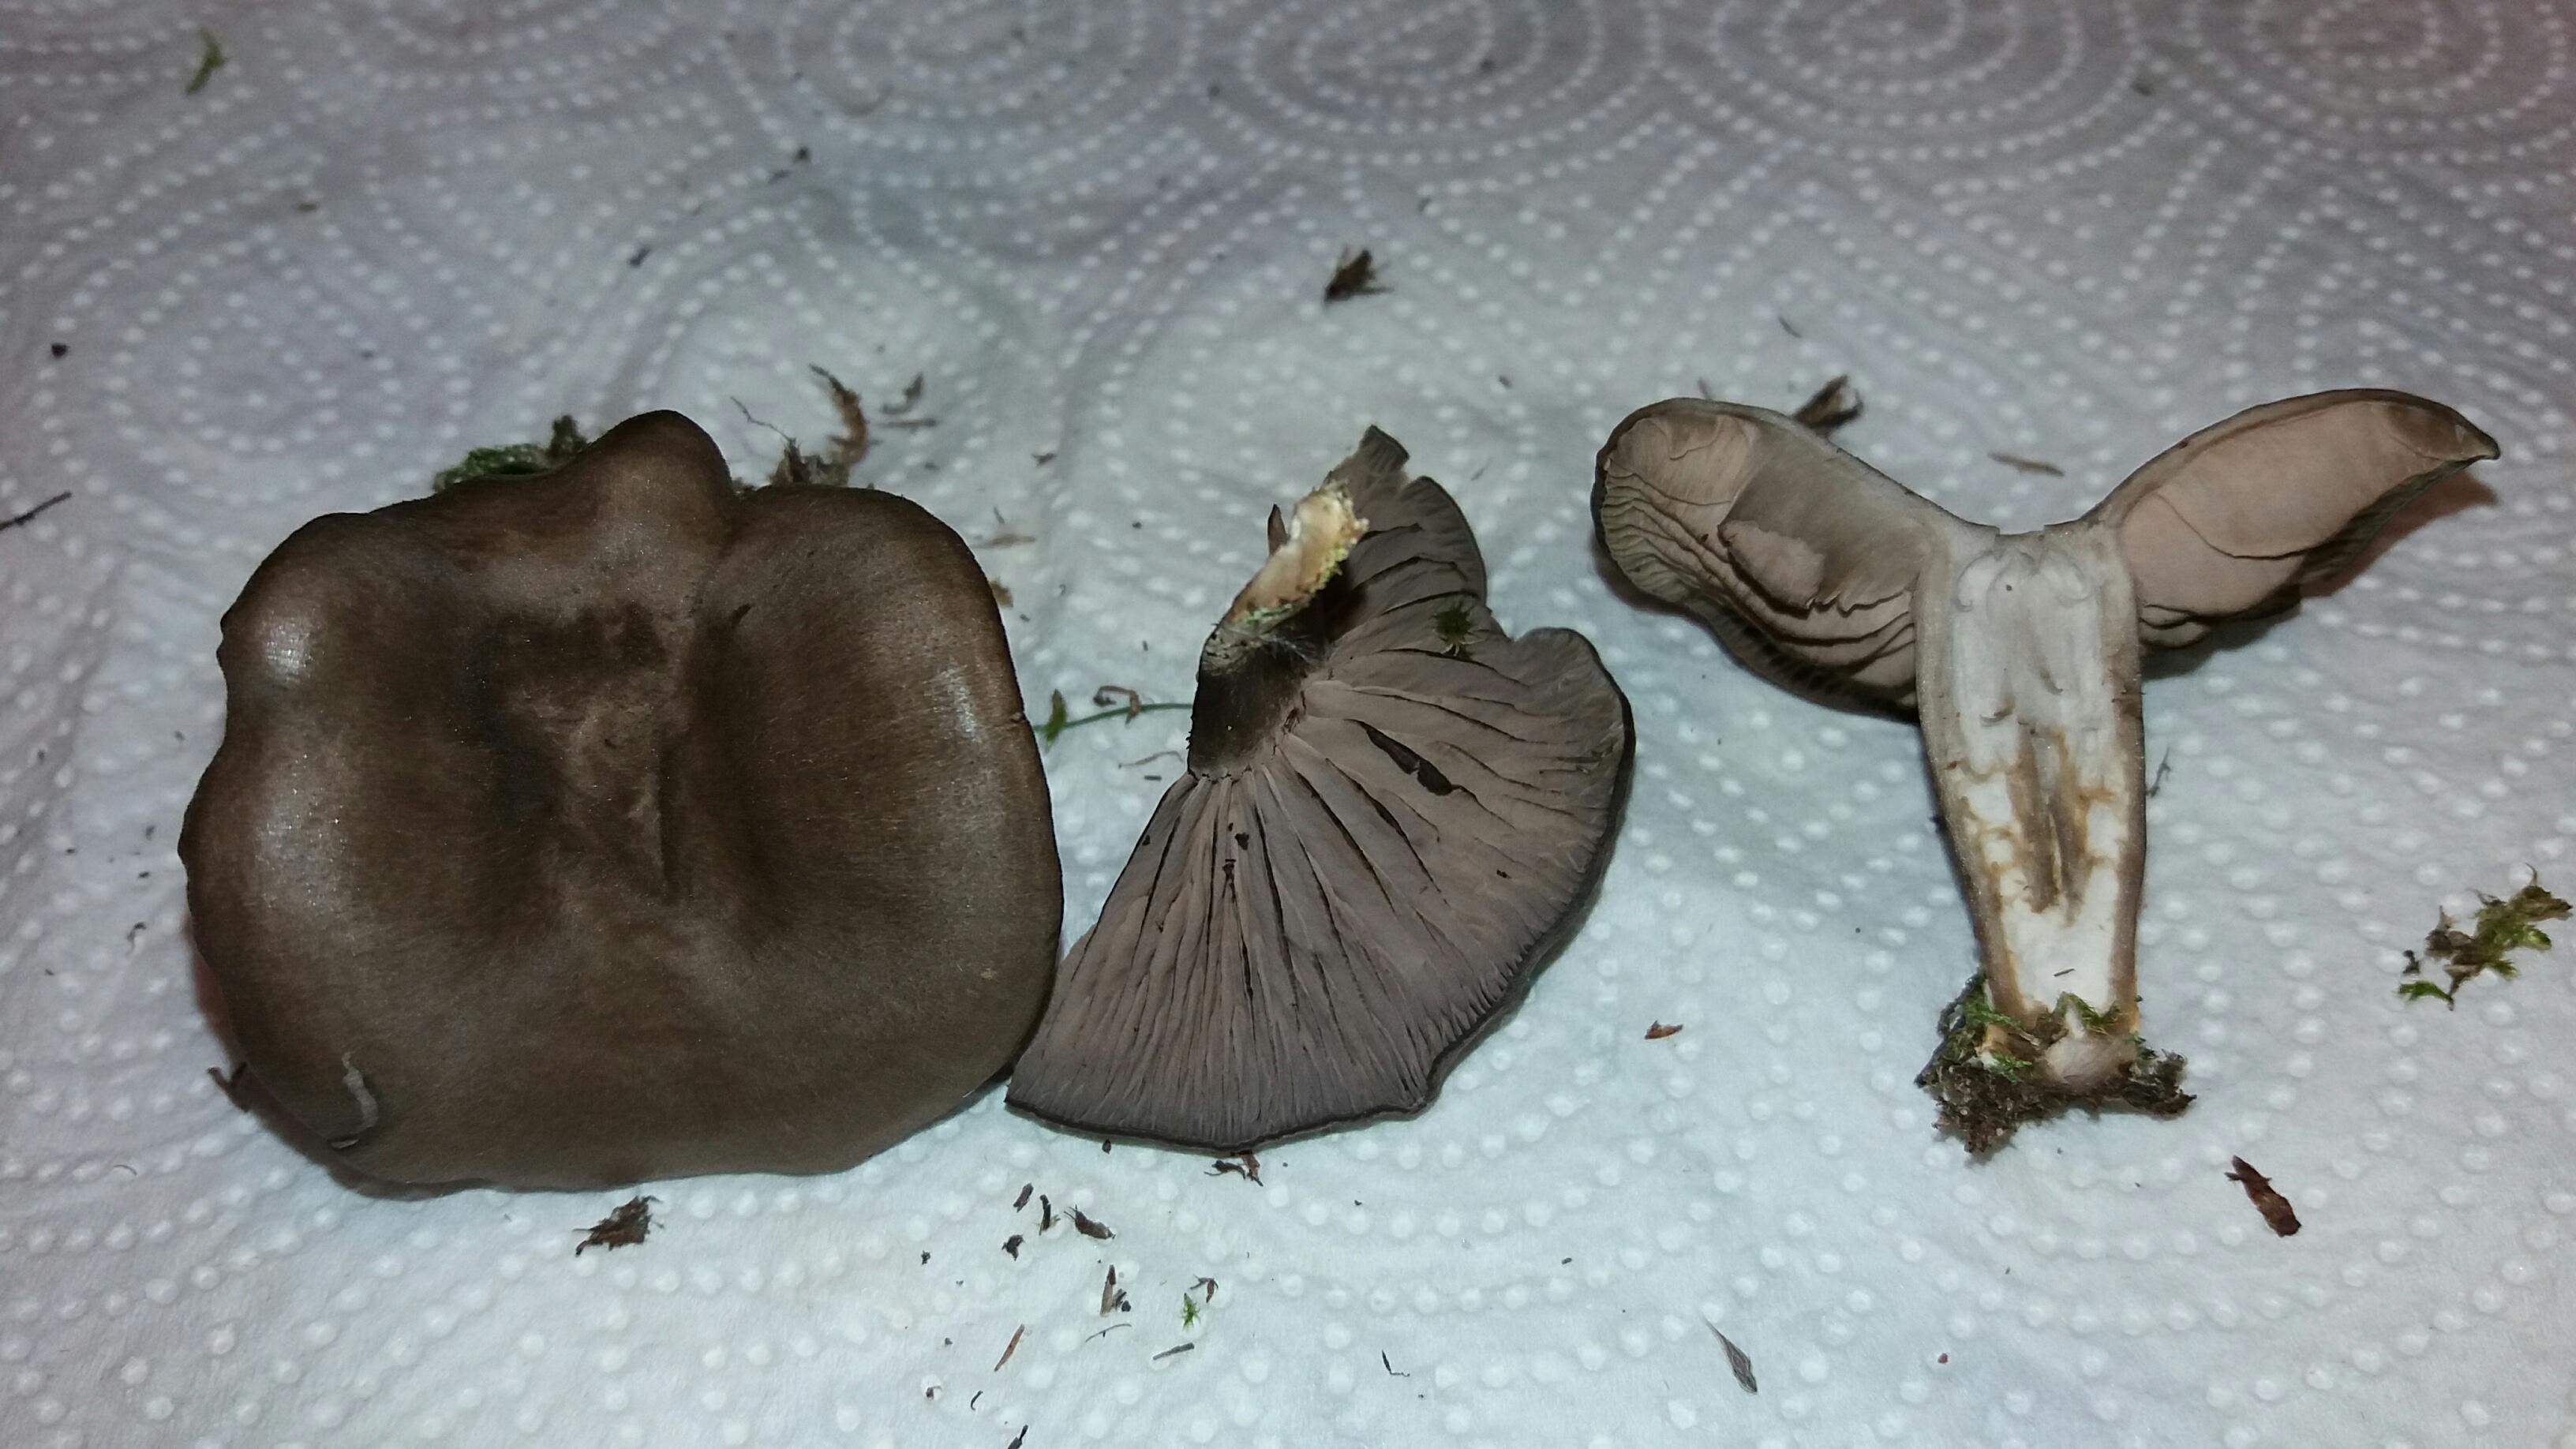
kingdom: Fungi
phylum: Basidiomycota
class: Agaricomycetes
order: Agaricales
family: Entolomataceae
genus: Entoloma
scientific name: Entoloma vindobonense
